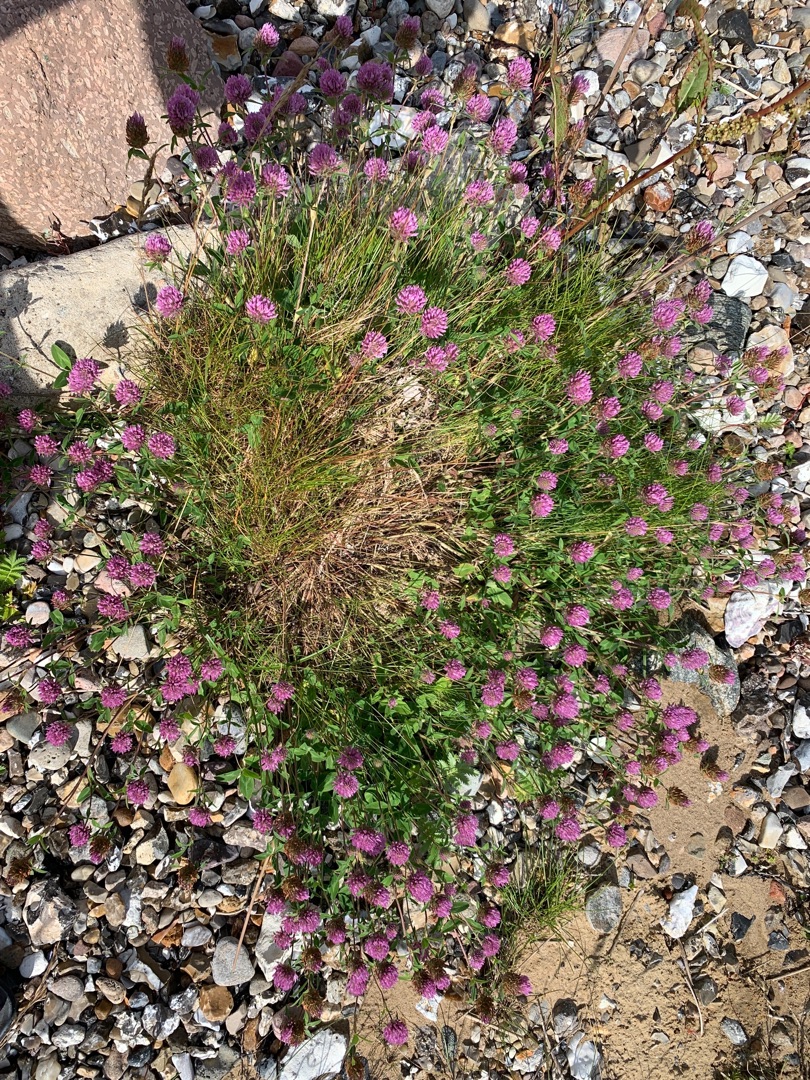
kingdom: Plantae
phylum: Tracheophyta
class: Magnoliopsida
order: Fabales
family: Fabaceae
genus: Trifolium
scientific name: Trifolium medium
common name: Bugtet kløver
